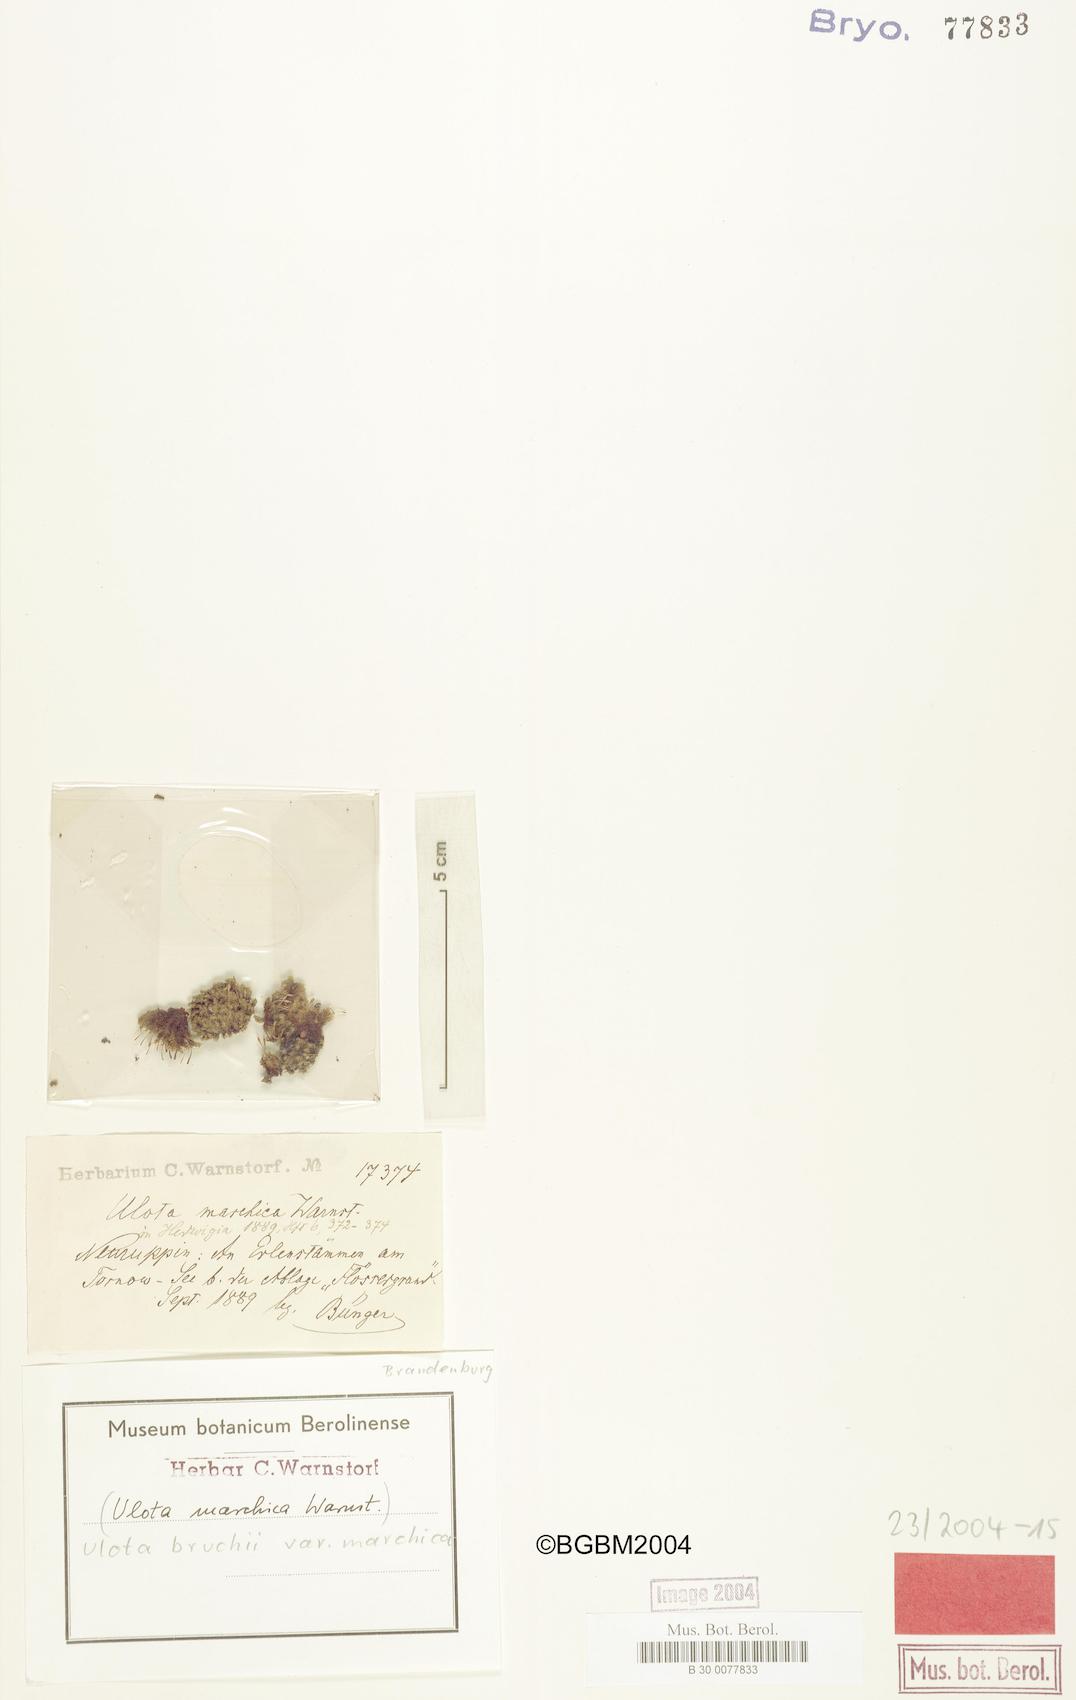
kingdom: Plantae
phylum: Bryophyta
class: Bryopsida
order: Orthotrichales
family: Orthotrichaceae
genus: Ulota
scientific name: Ulota bruchii
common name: Bruch's pincushion
